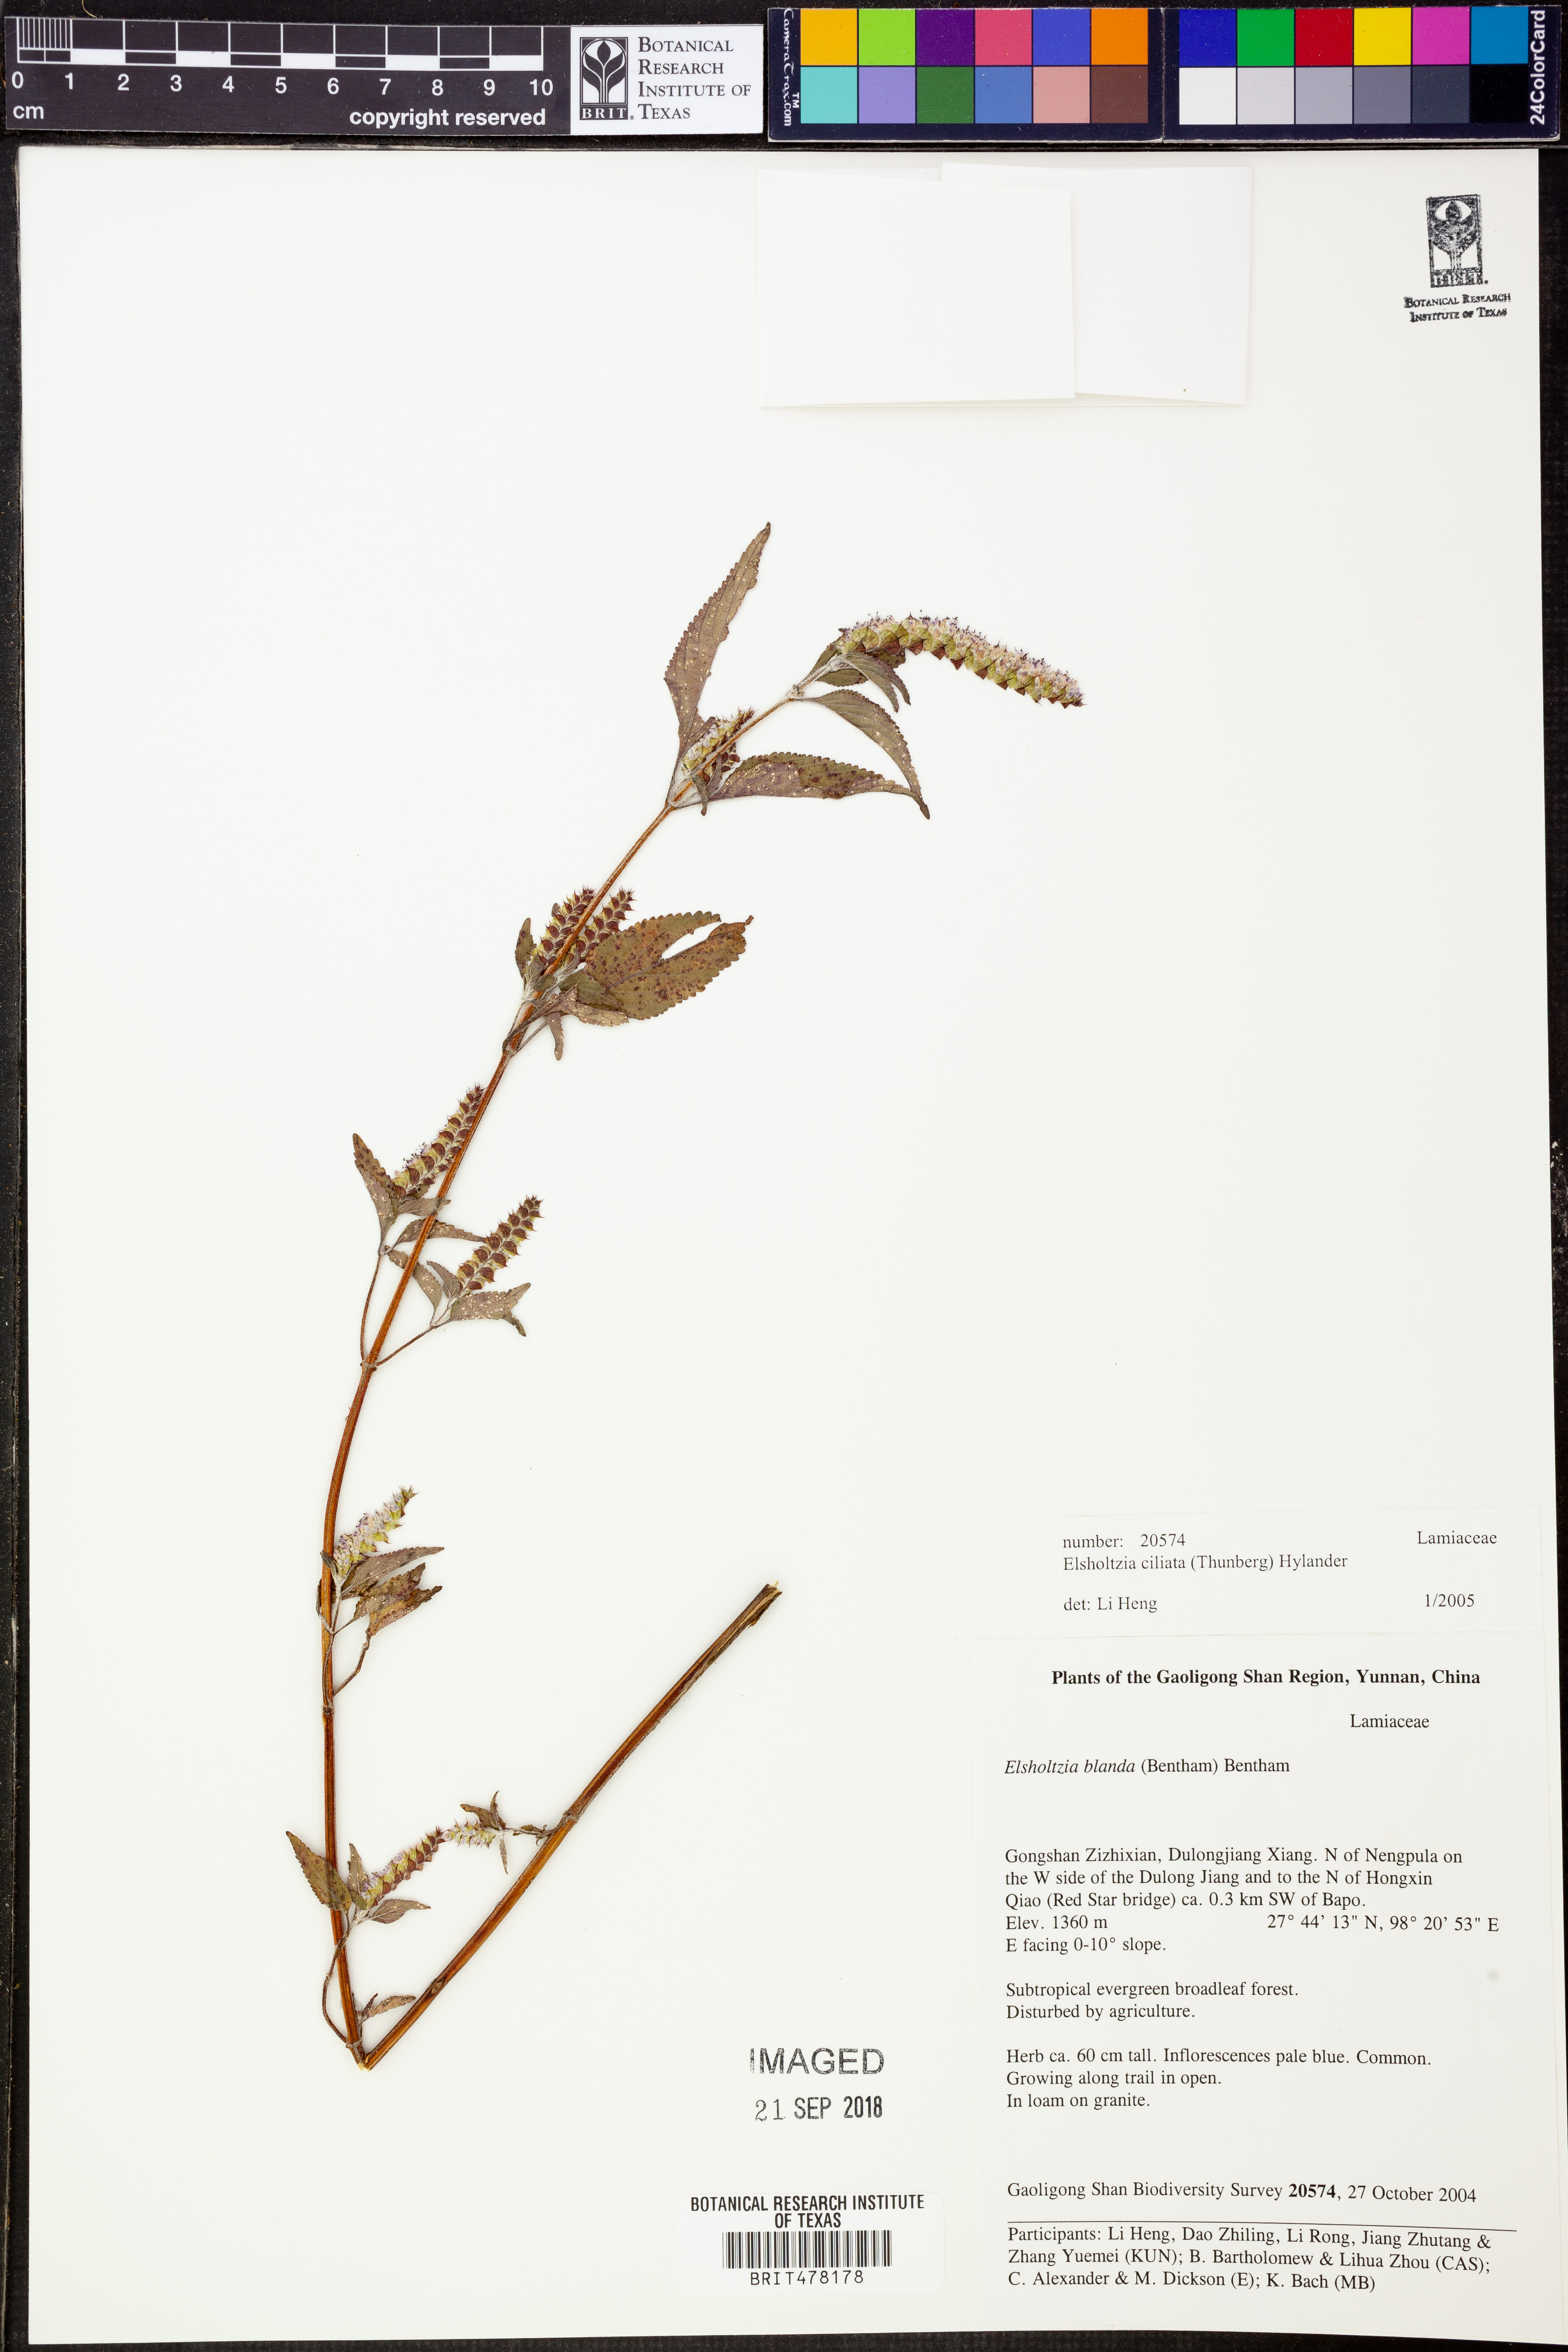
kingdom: Plantae
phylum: Tracheophyta
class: Magnoliopsida
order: Lamiales
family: Lamiaceae
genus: Elsholtzia
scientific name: Elsholtzia ciliata
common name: Ciliate elsholtzia
